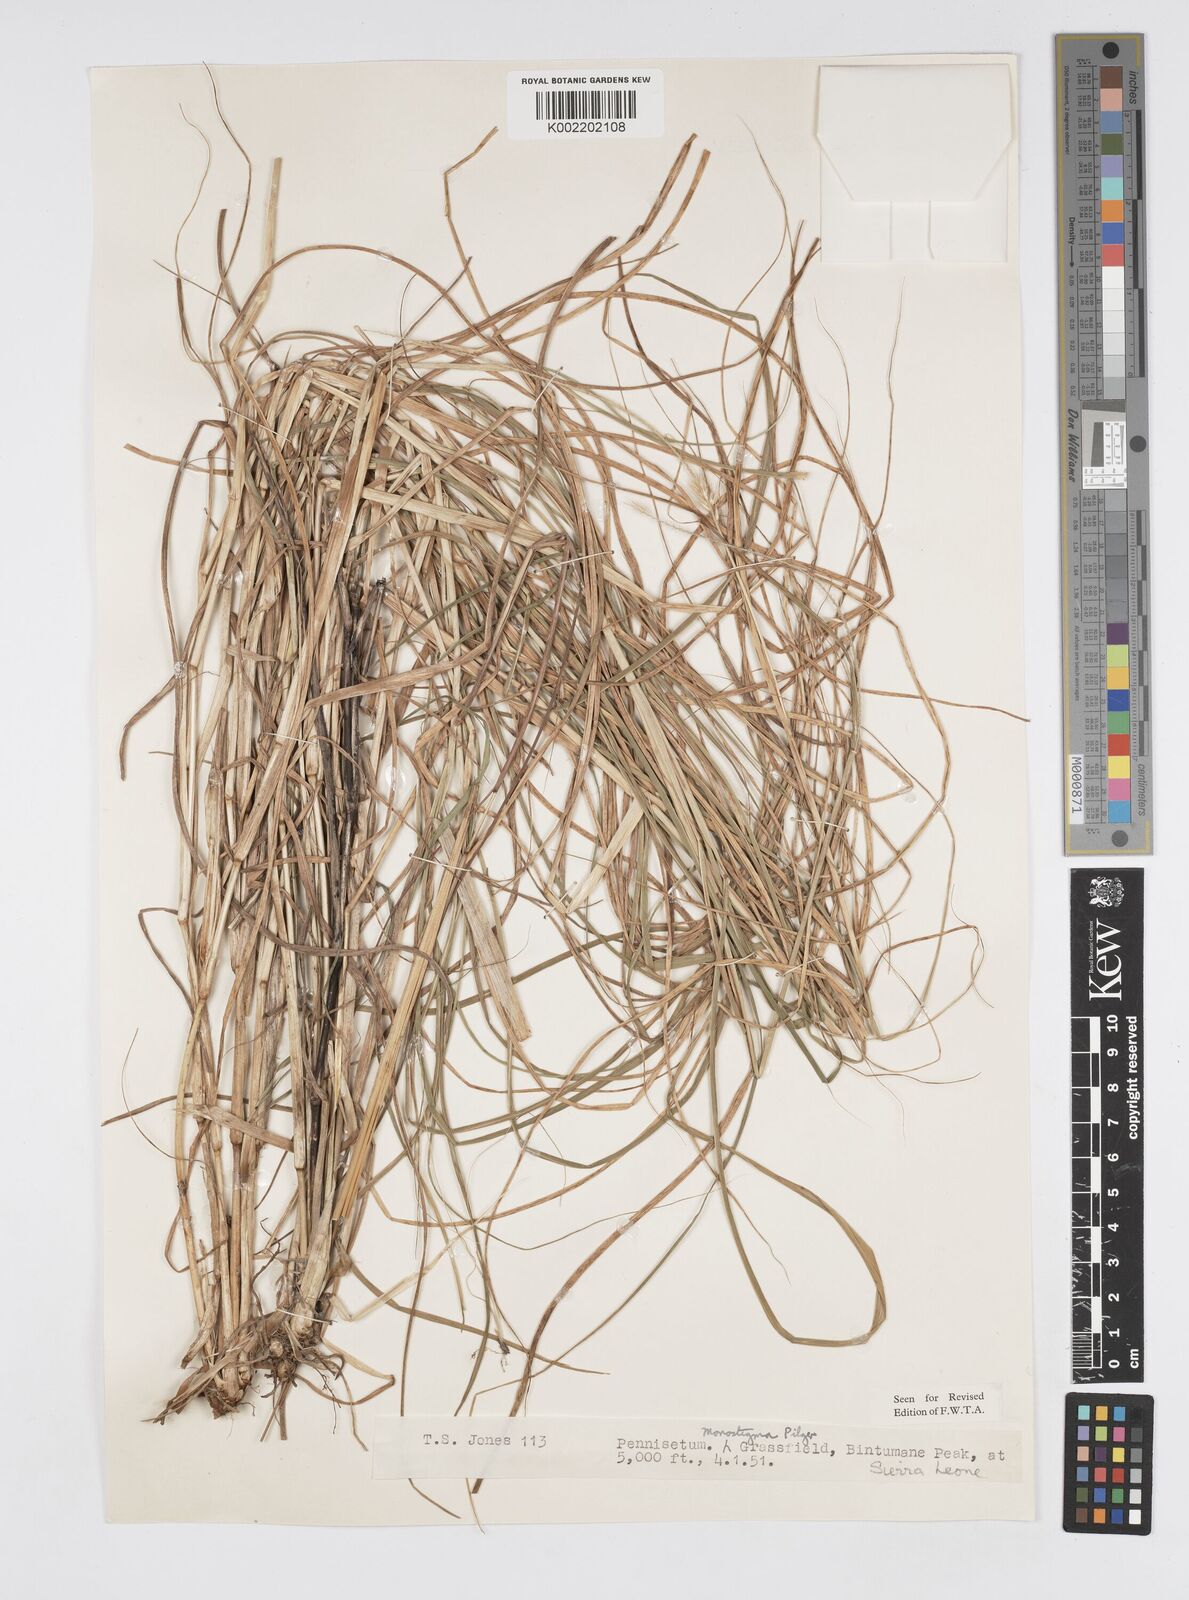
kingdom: Plantae
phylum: Tracheophyta
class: Liliopsida
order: Poales
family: Poaceae
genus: Cenchrus
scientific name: Cenchrus monostigma
